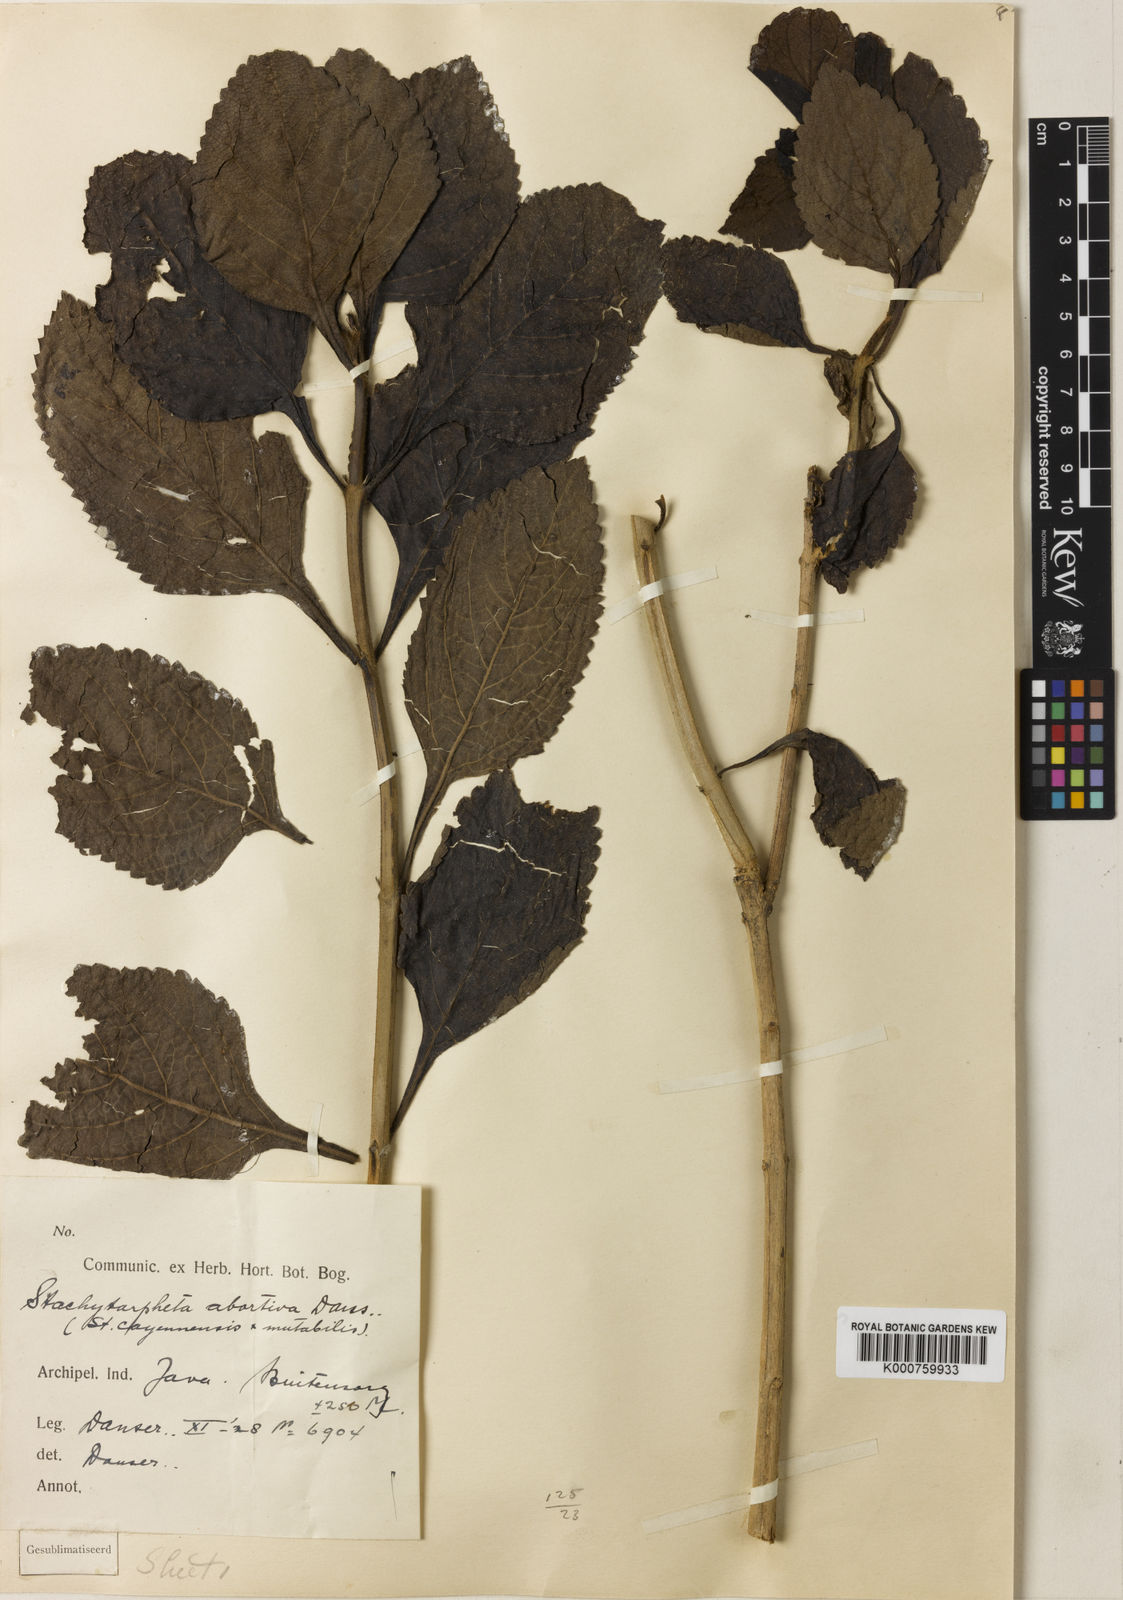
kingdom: Plantae
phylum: Tracheophyta
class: Magnoliopsida
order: Lamiales
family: Verbenaceae
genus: Stachytarpheta
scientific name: Stachytarpheta abortiva
